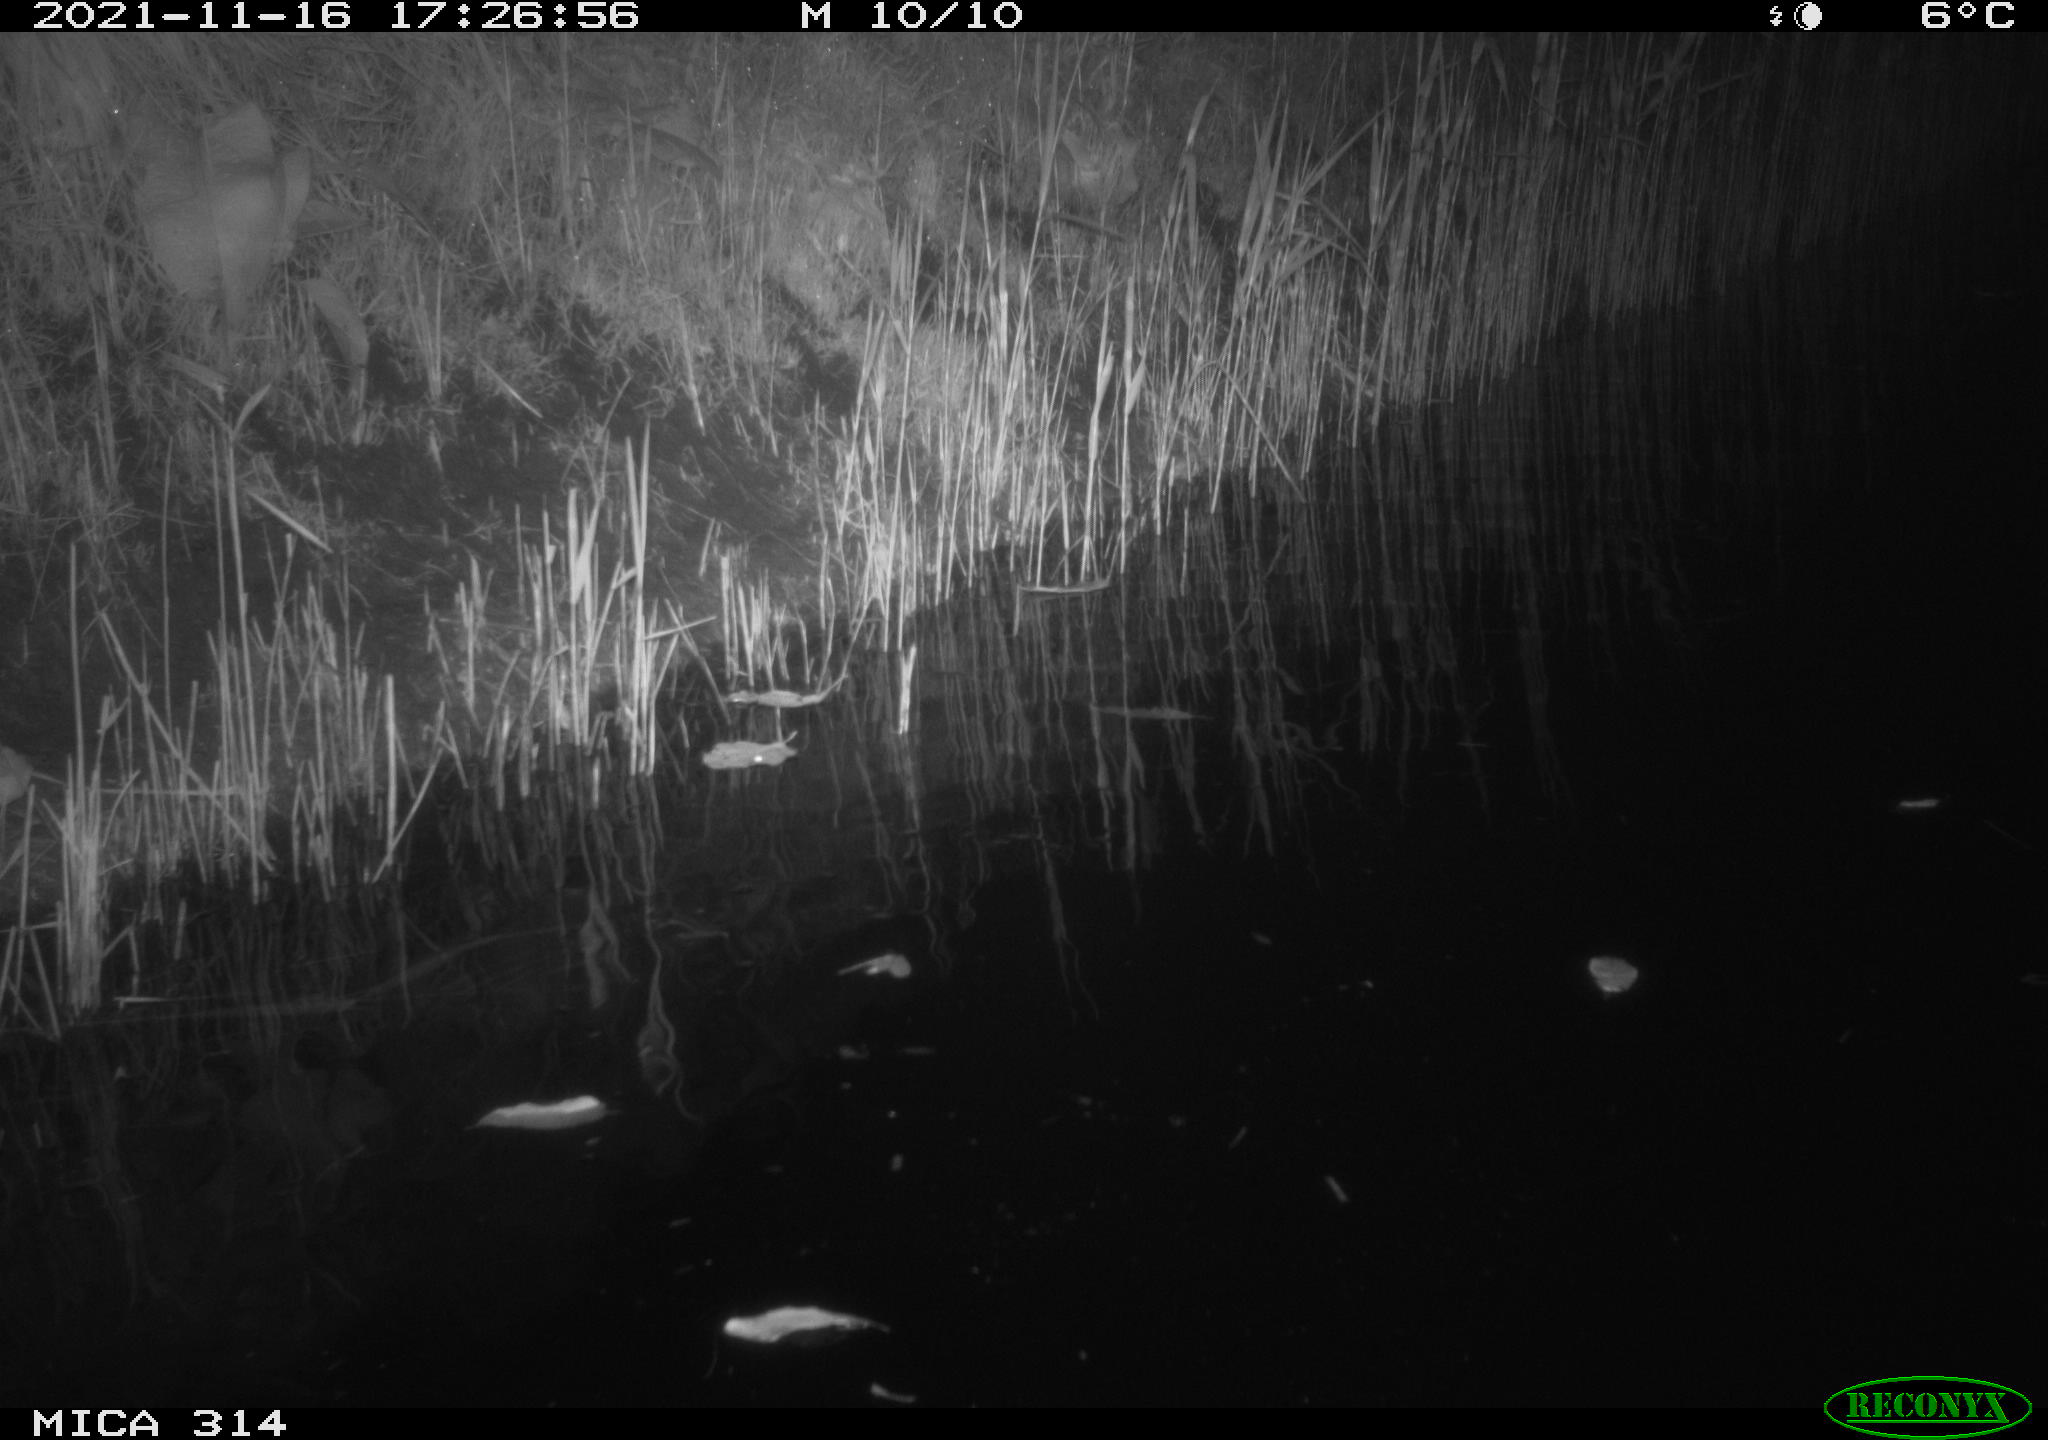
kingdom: Animalia
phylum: Chordata
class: Aves
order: Gruiformes
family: Rallidae
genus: Gallinula
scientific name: Gallinula chloropus
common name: Common moorhen
